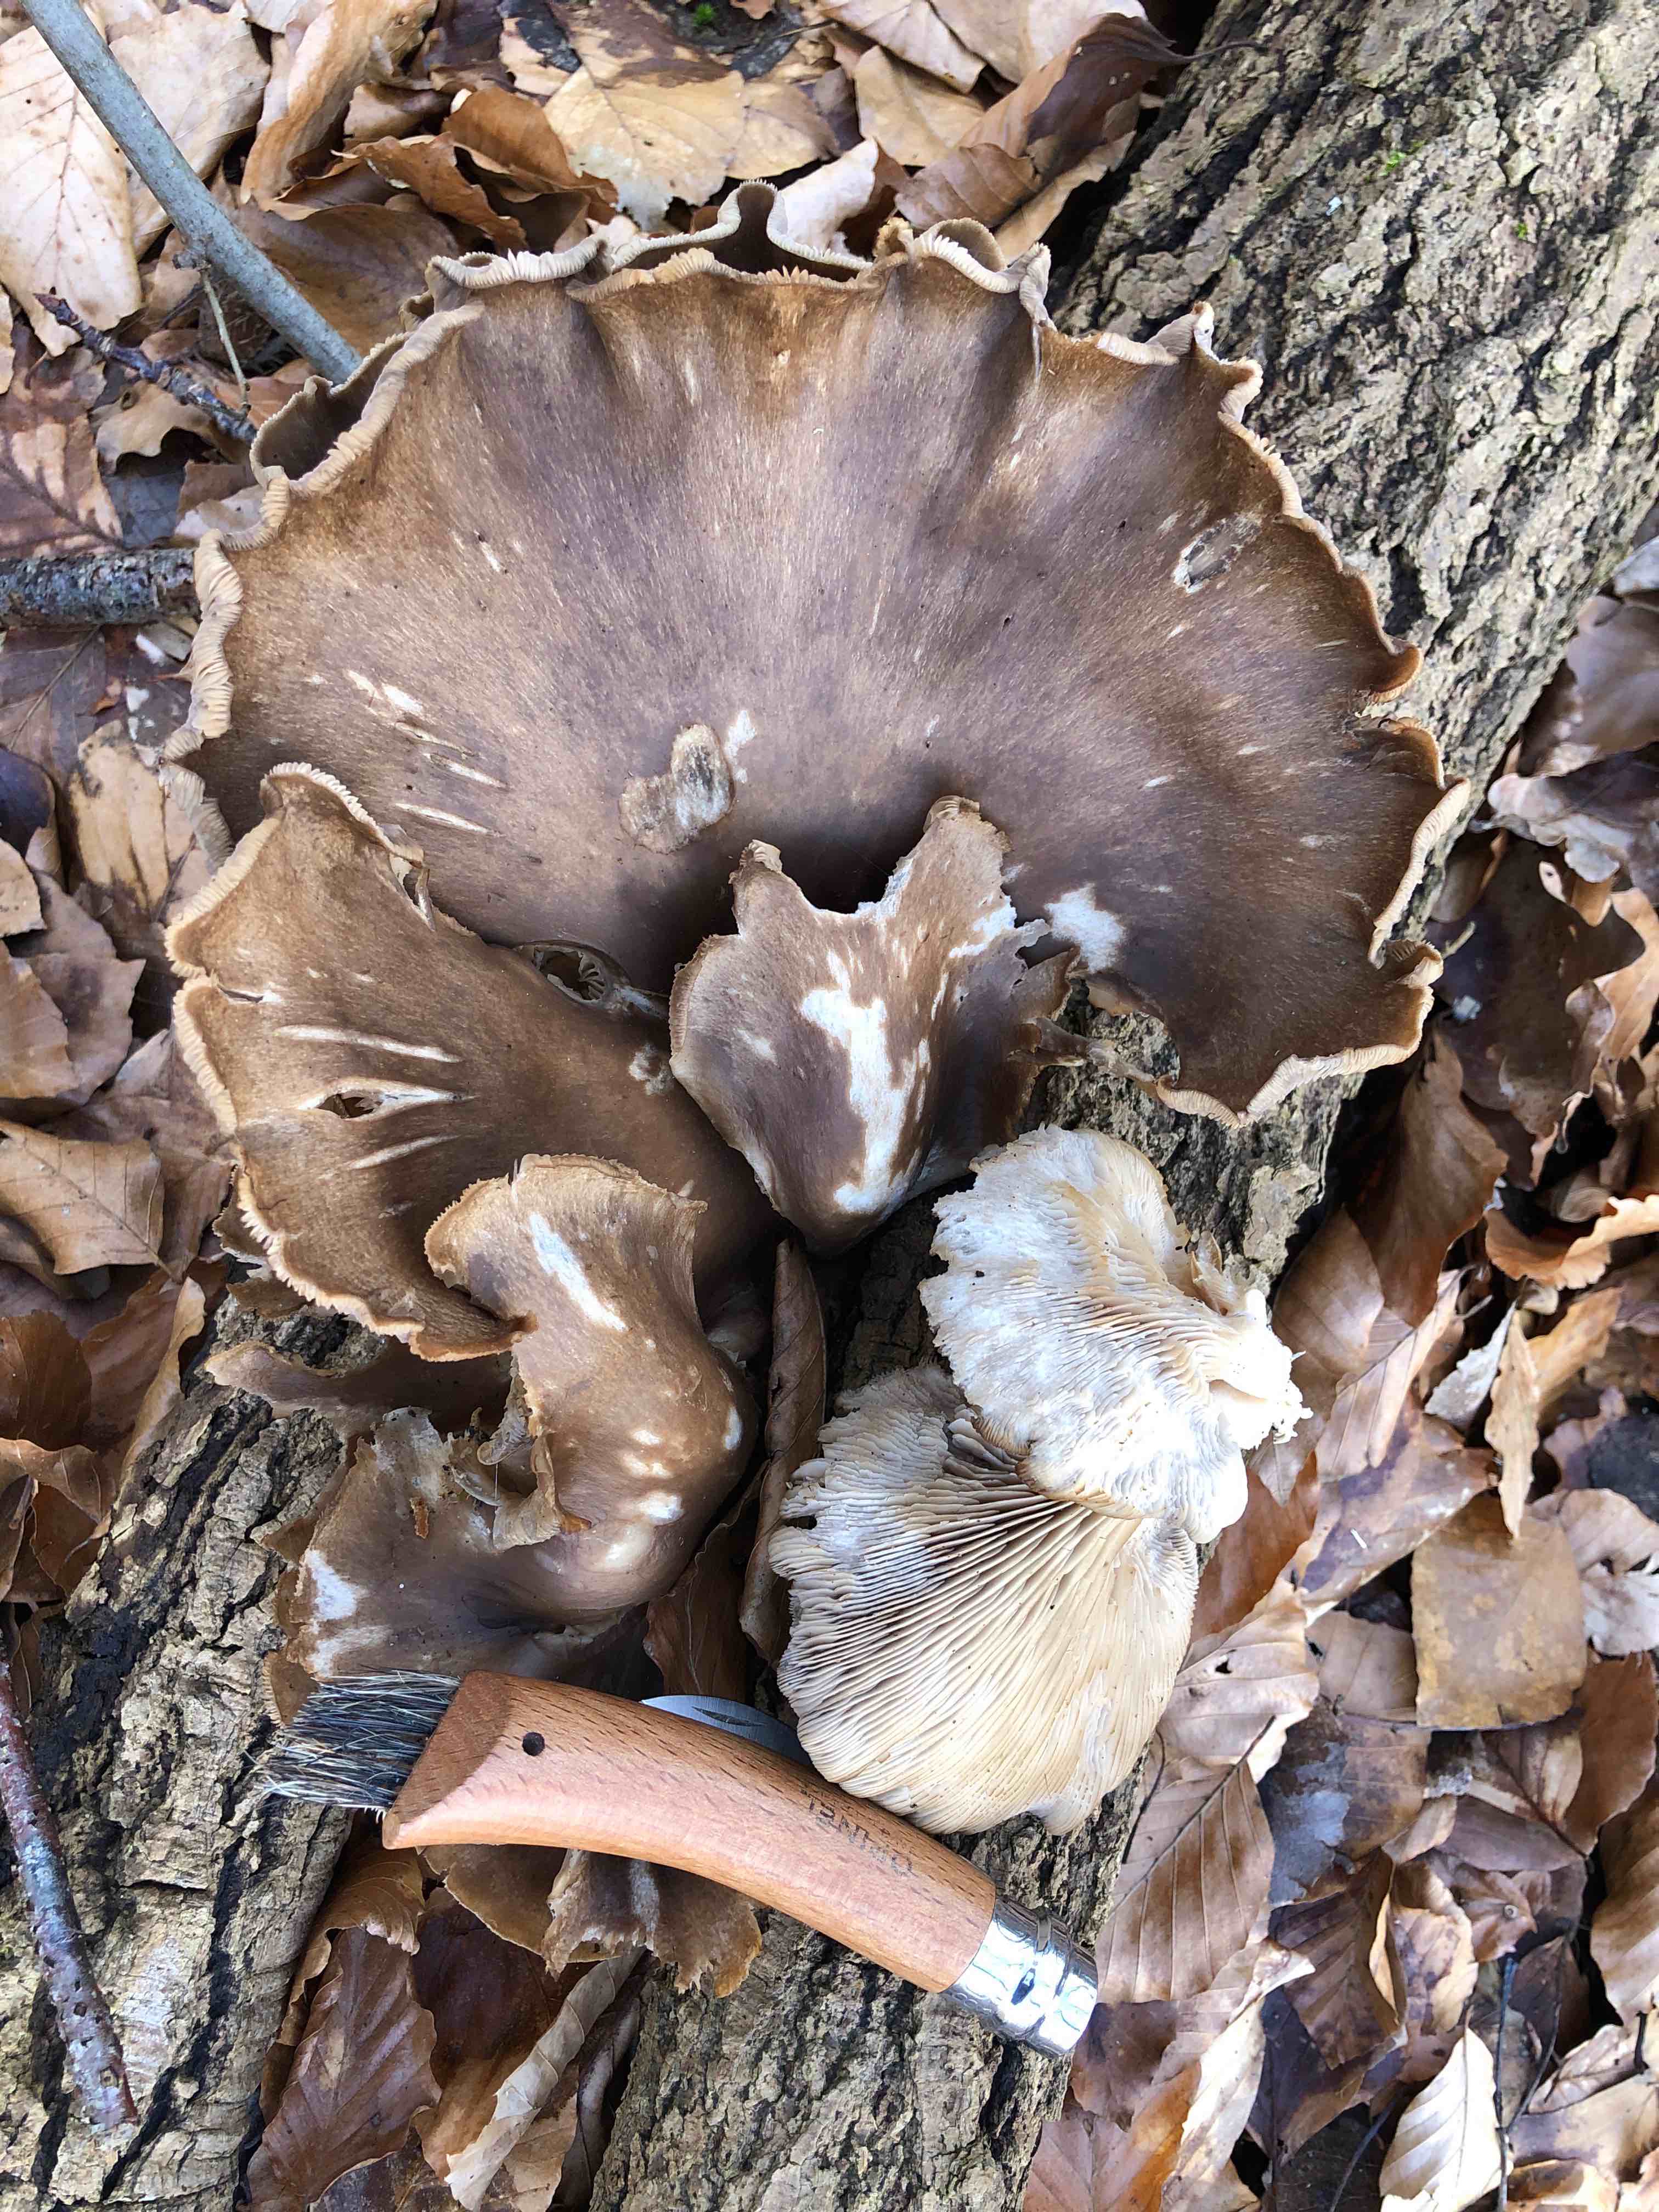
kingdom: Fungi
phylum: Basidiomycota
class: Agaricomycetes
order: Agaricales
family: Pleurotaceae
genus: Pleurotus
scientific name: Pleurotus ostreatus
